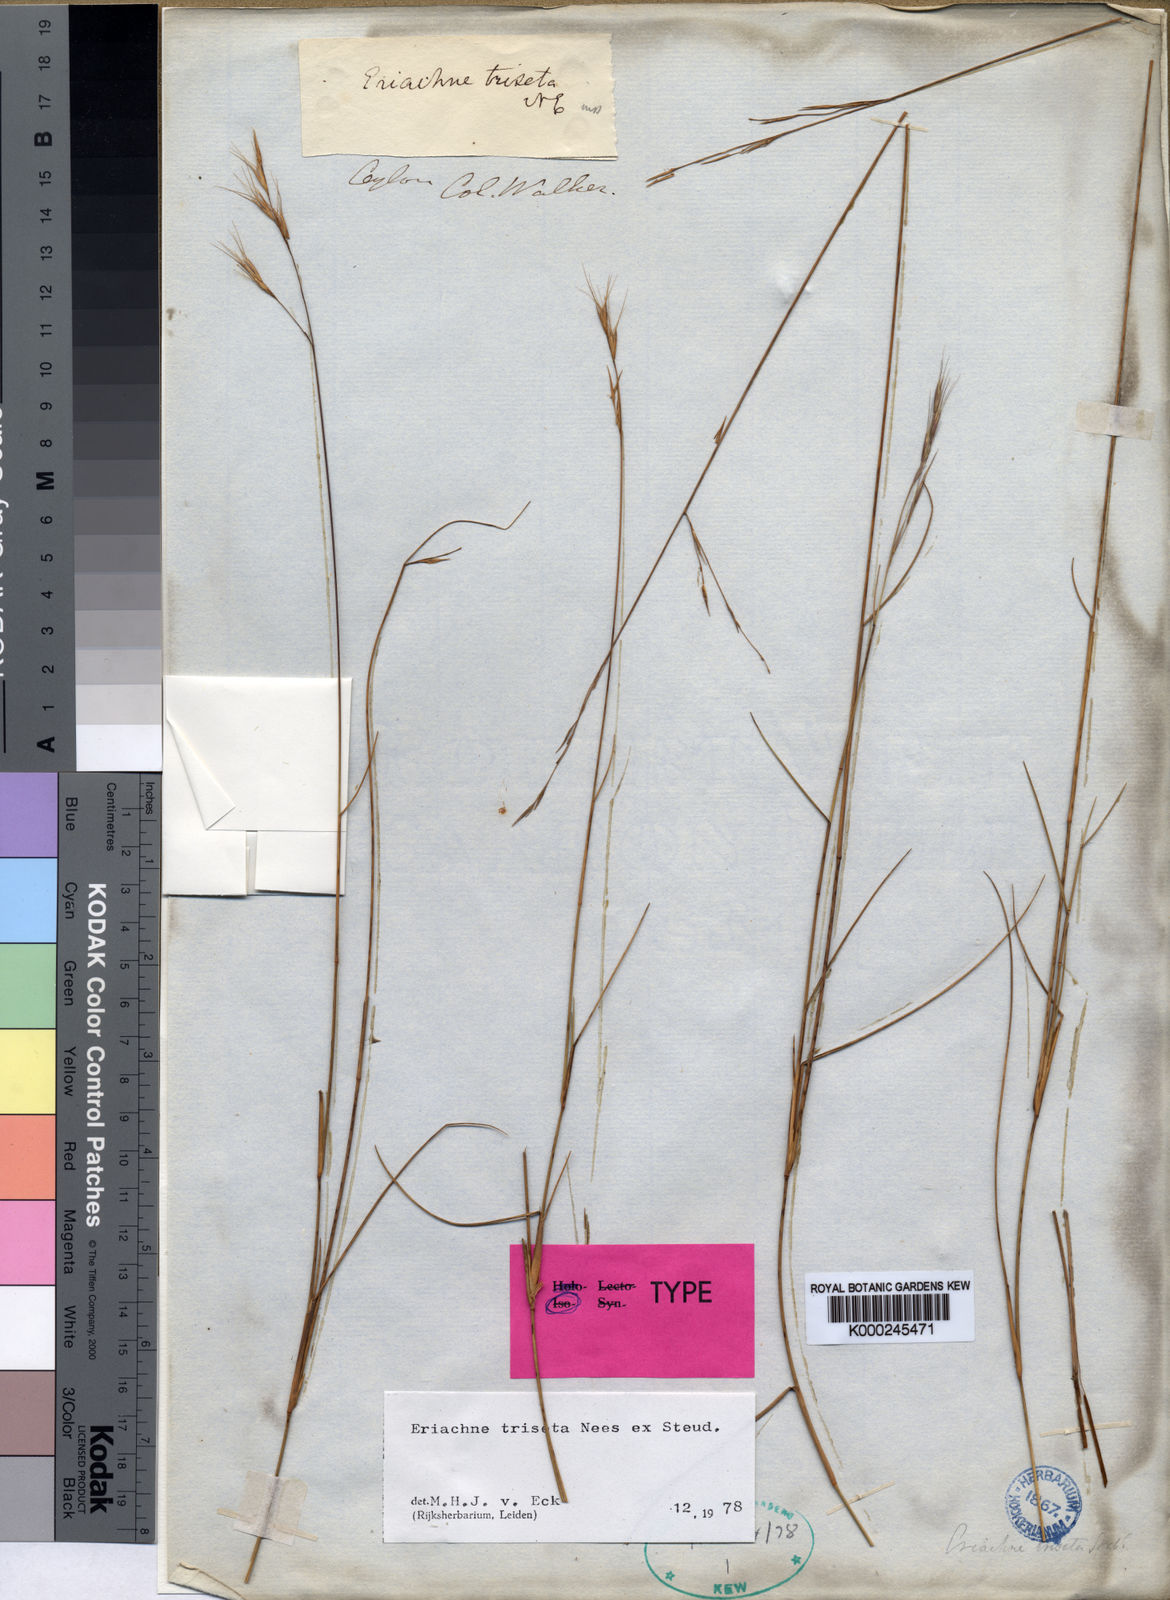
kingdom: Plantae
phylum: Tracheophyta
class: Liliopsida
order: Poales
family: Poaceae
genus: Eriachne
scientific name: Eriachne triseta
